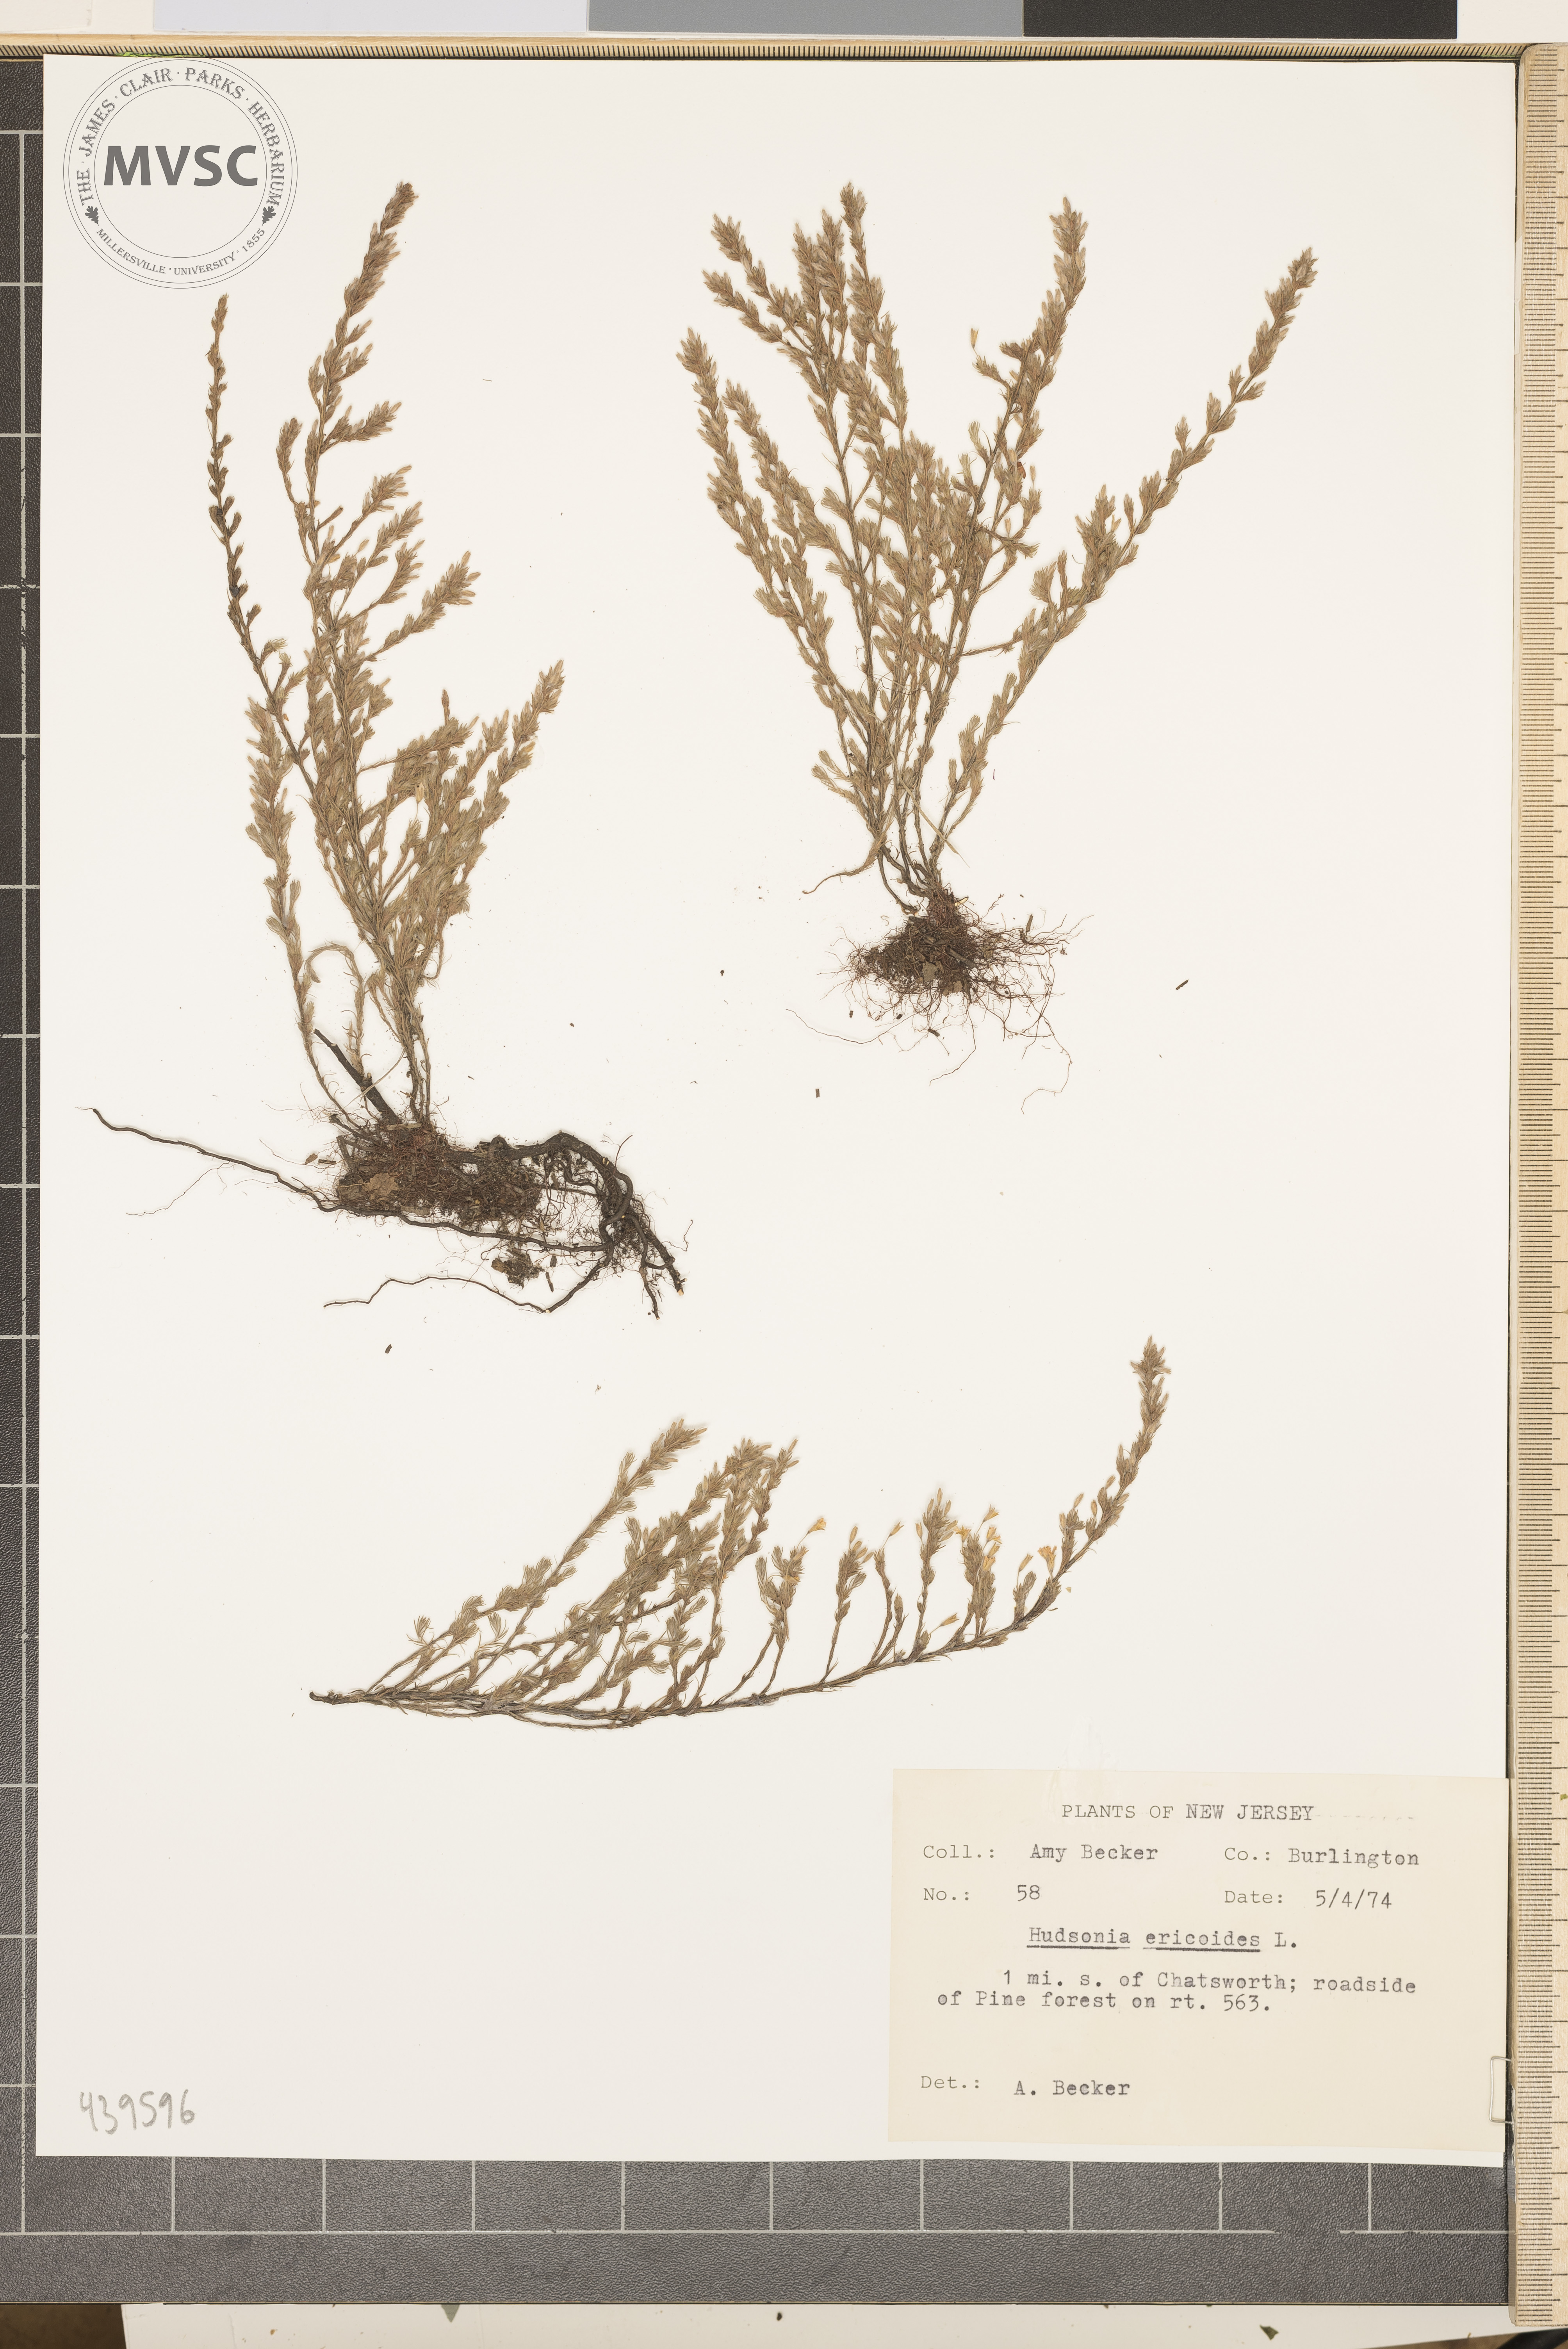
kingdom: Plantae
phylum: Tracheophyta
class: Magnoliopsida
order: Malvales
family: Cistaceae
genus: Hudsonia
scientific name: Hudsonia ericoides
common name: Golden-heather
